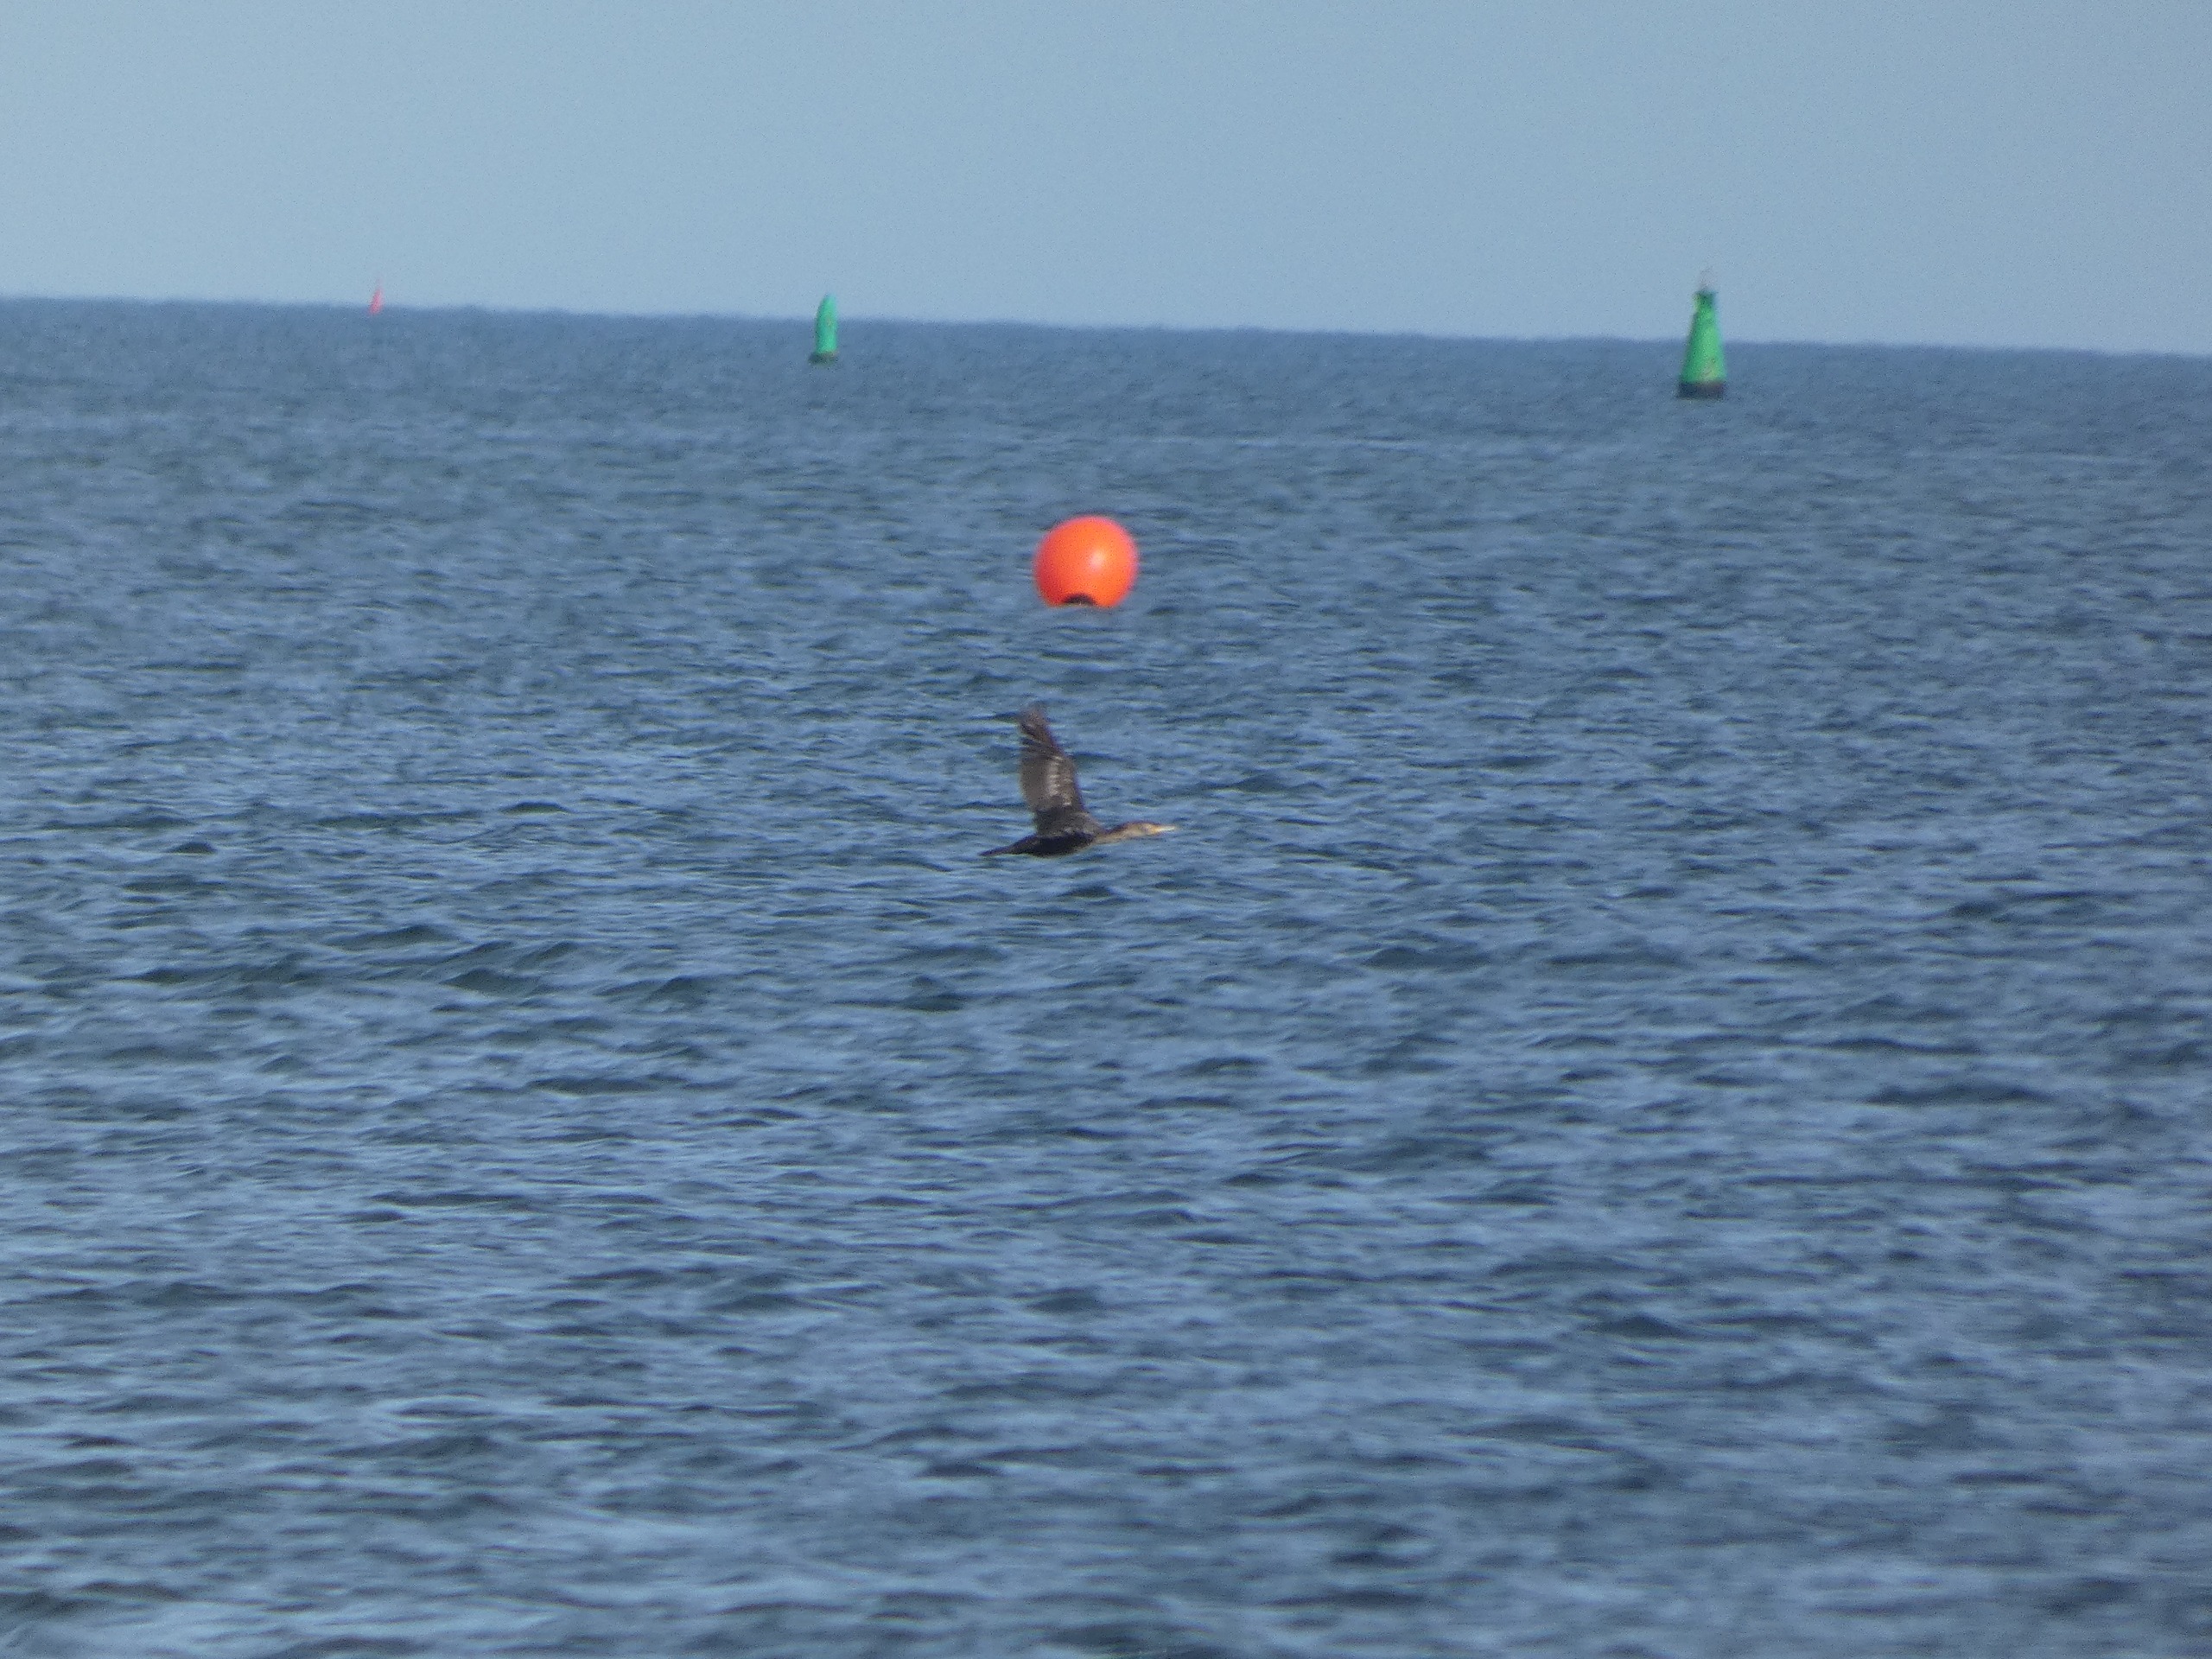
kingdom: Animalia
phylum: Chordata
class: Aves
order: Suliformes
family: Phalacrocoracidae
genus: Phalacrocorax
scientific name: Phalacrocorax carbo
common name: Skarv
